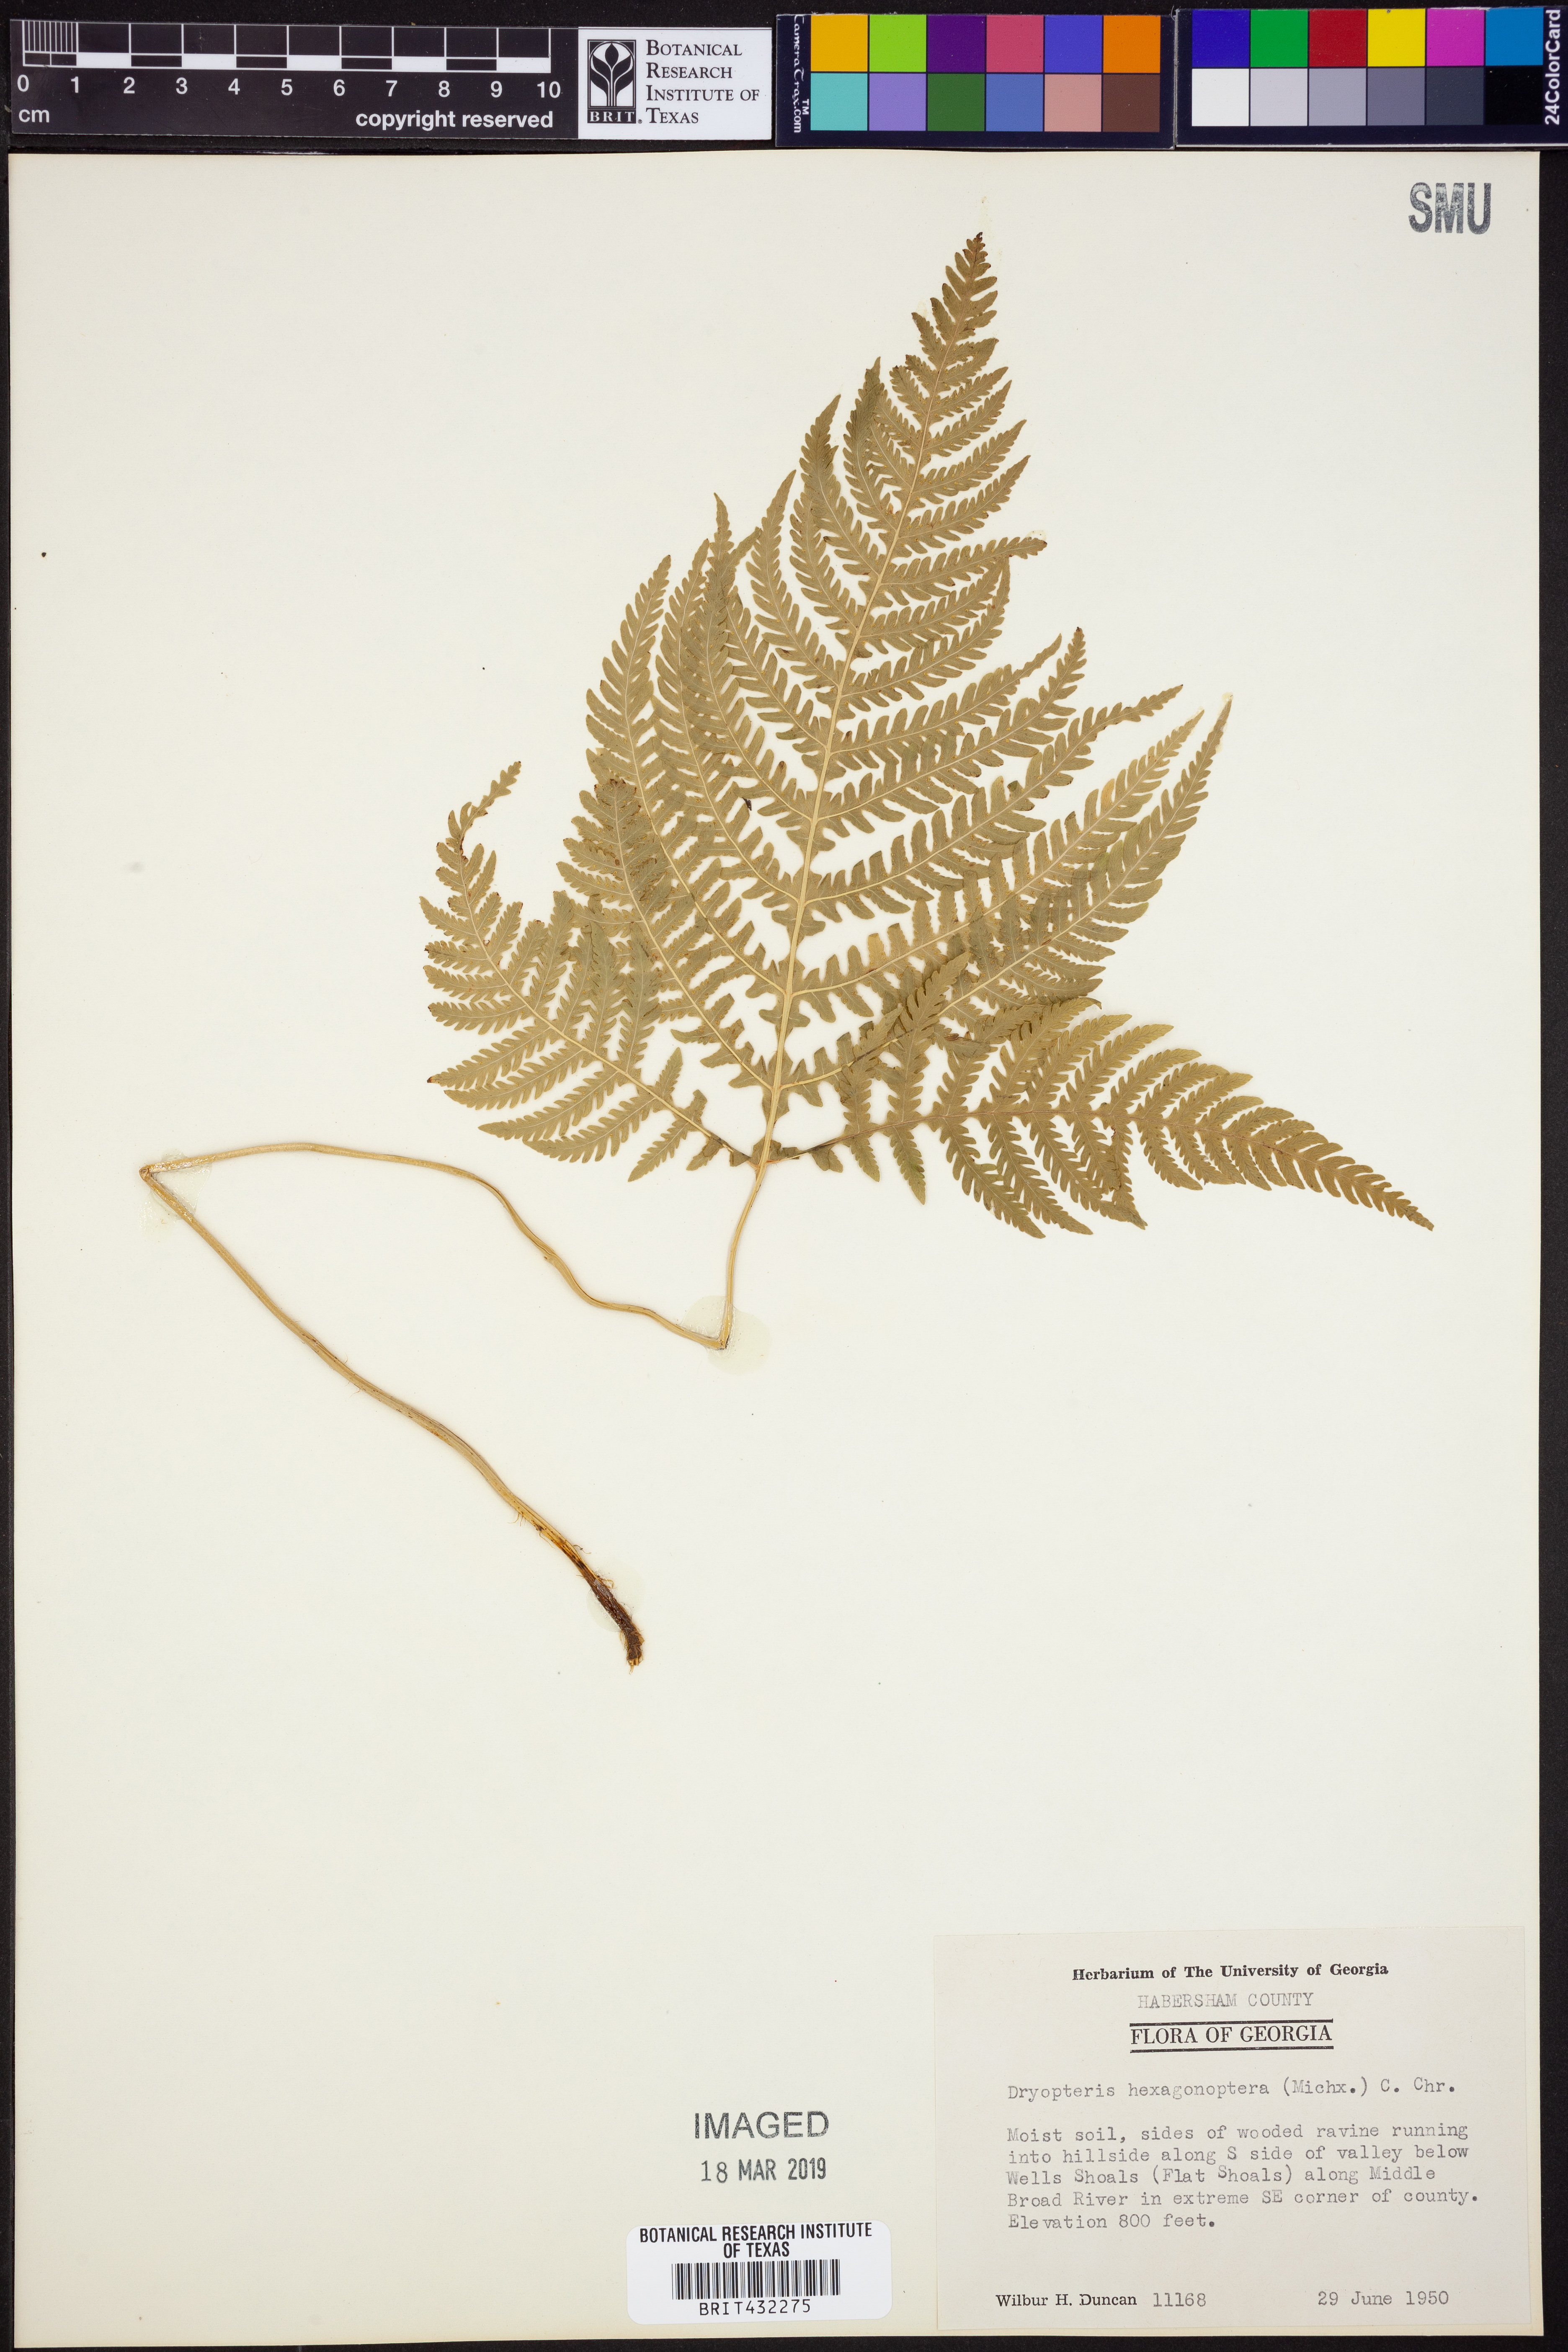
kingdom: Plantae
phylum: Tracheophyta
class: Polypodiopsida
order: Polypodiales
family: Dryopteridaceae
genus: Dryopteris
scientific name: Dryopteris hexagonaptera
